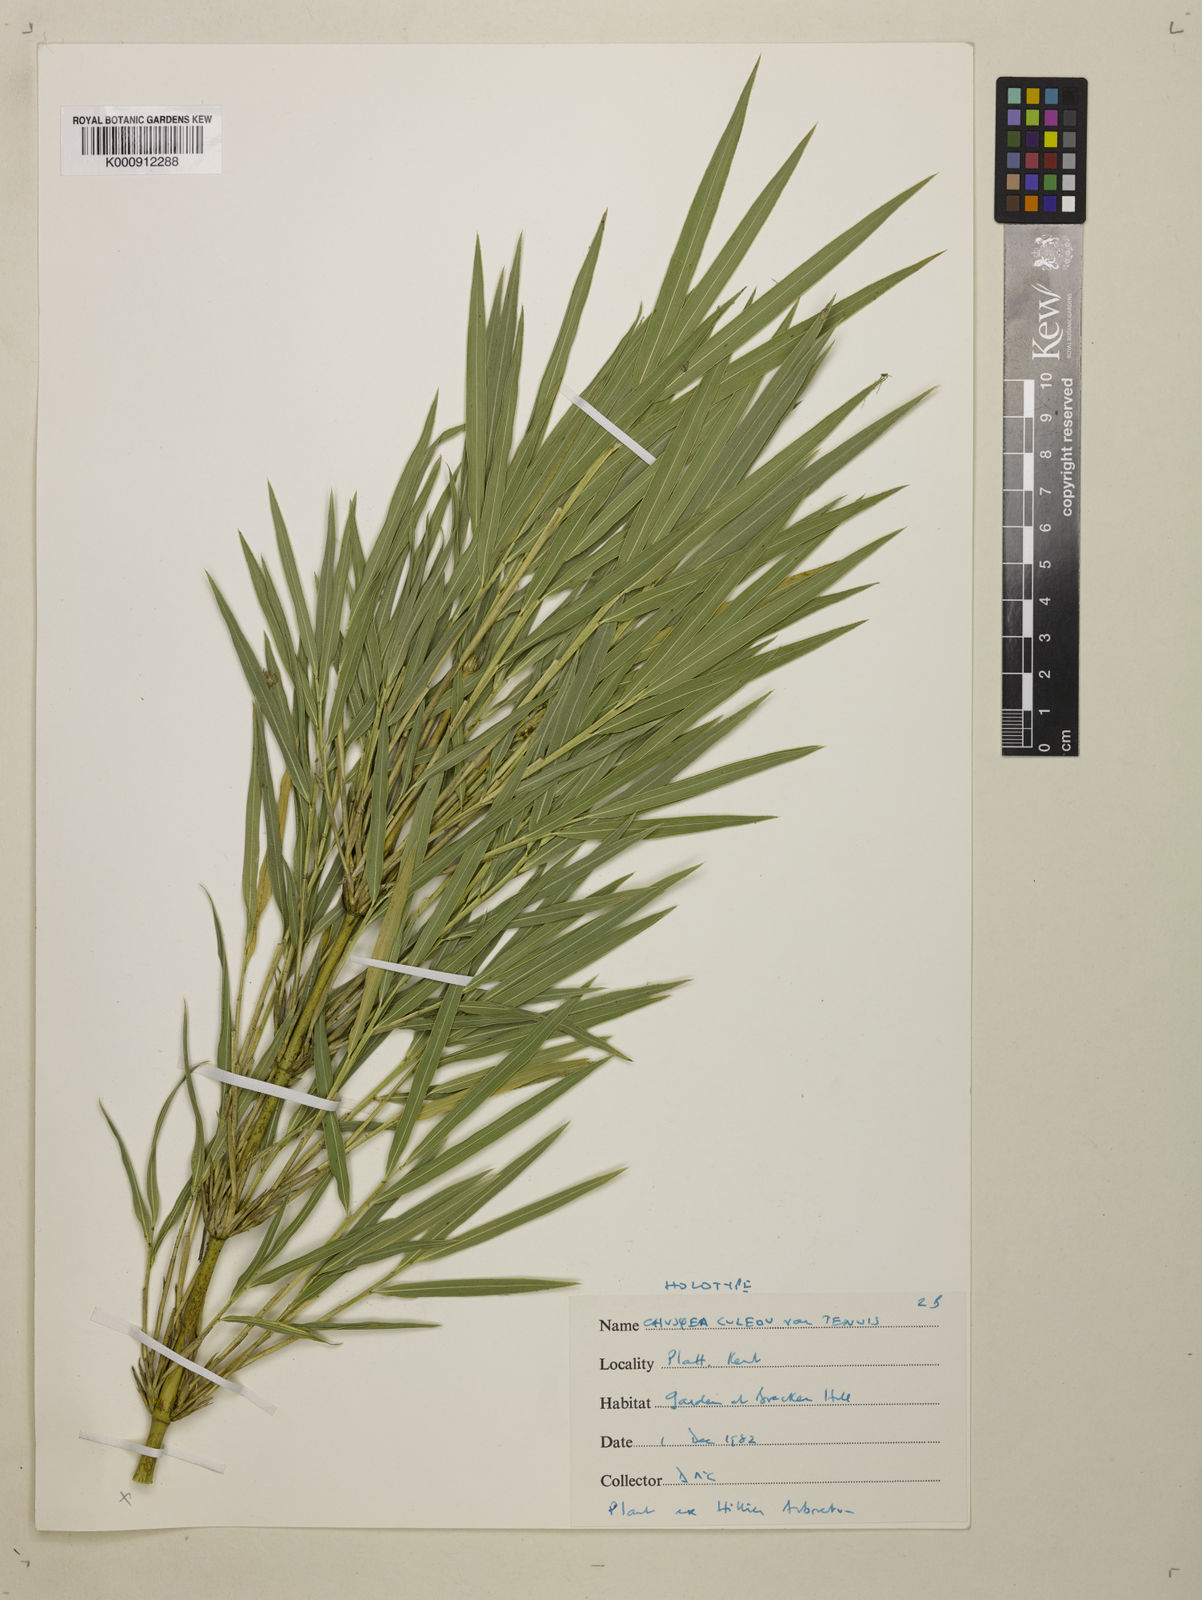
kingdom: Plantae
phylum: Tracheophyta
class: Liliopsida
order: Poales
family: Poaceae
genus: Chusquea
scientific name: Chusquea
